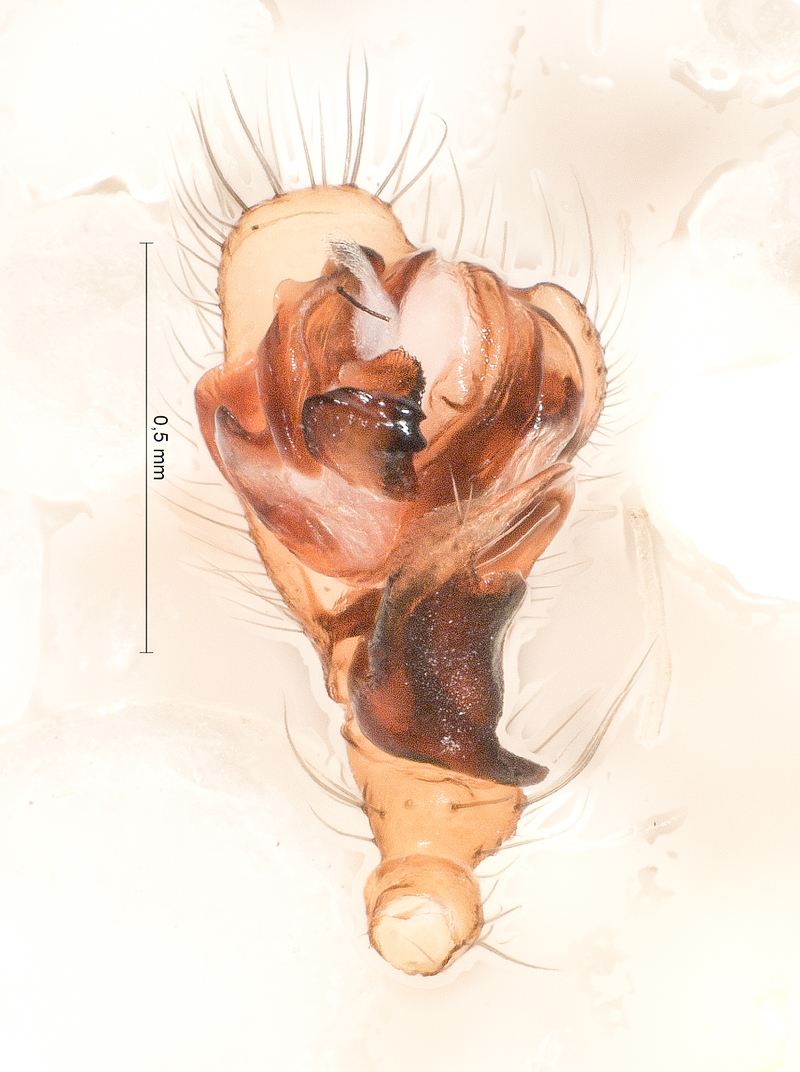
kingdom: Animalia
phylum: Arthropoda
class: Arachnida
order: Araneae
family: Linyphiidae
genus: Saaristoa
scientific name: Saaristoa abnormis
